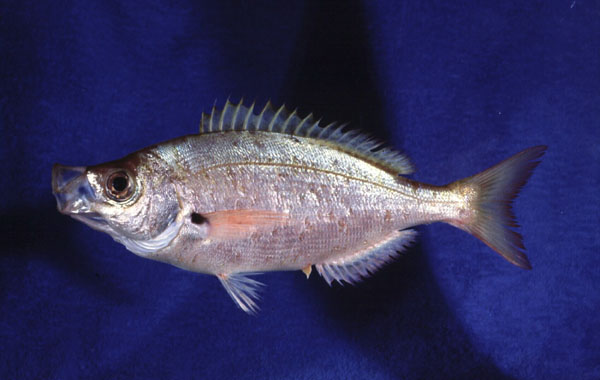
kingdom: Animalia
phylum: Chordata
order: Perciformes
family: Sparidae
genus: Spicara
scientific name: Spicara axillaris
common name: Windtoy
